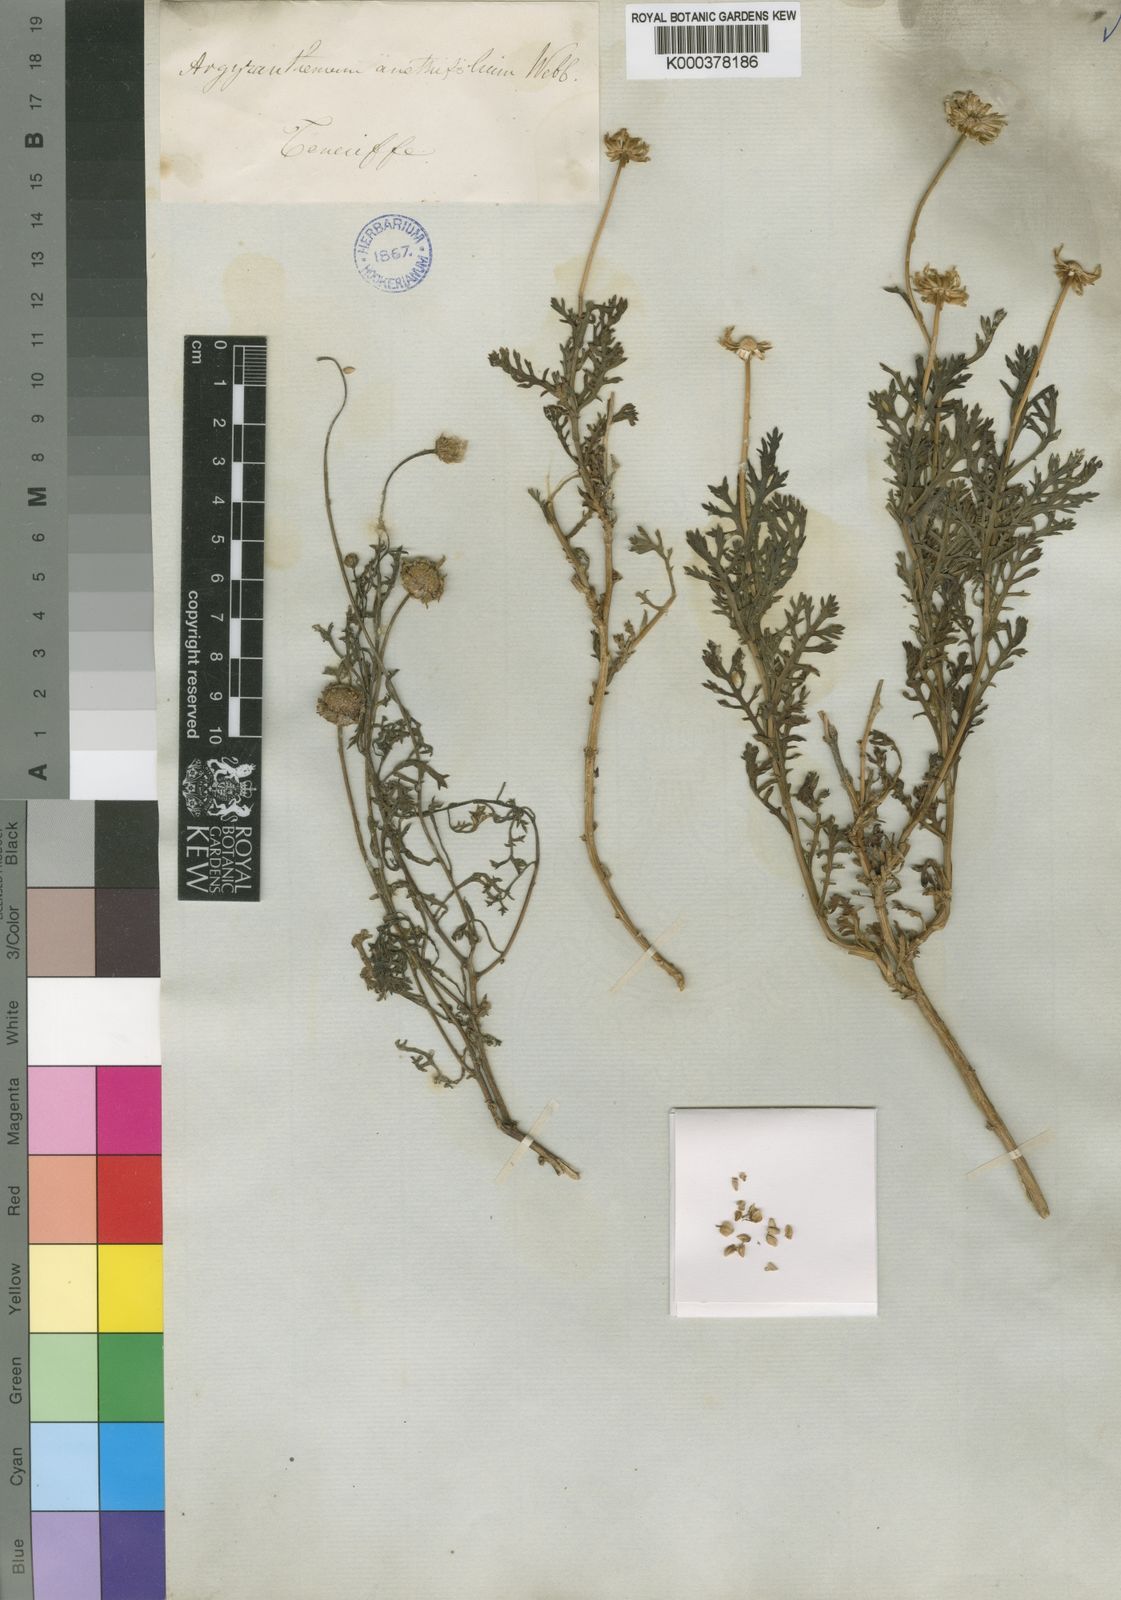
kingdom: Plantae
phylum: Tracheophyta
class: Magnoliopsida
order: Asterales
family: Asteraceae
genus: Argyranthemum
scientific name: Argyranthemum tenerifae
